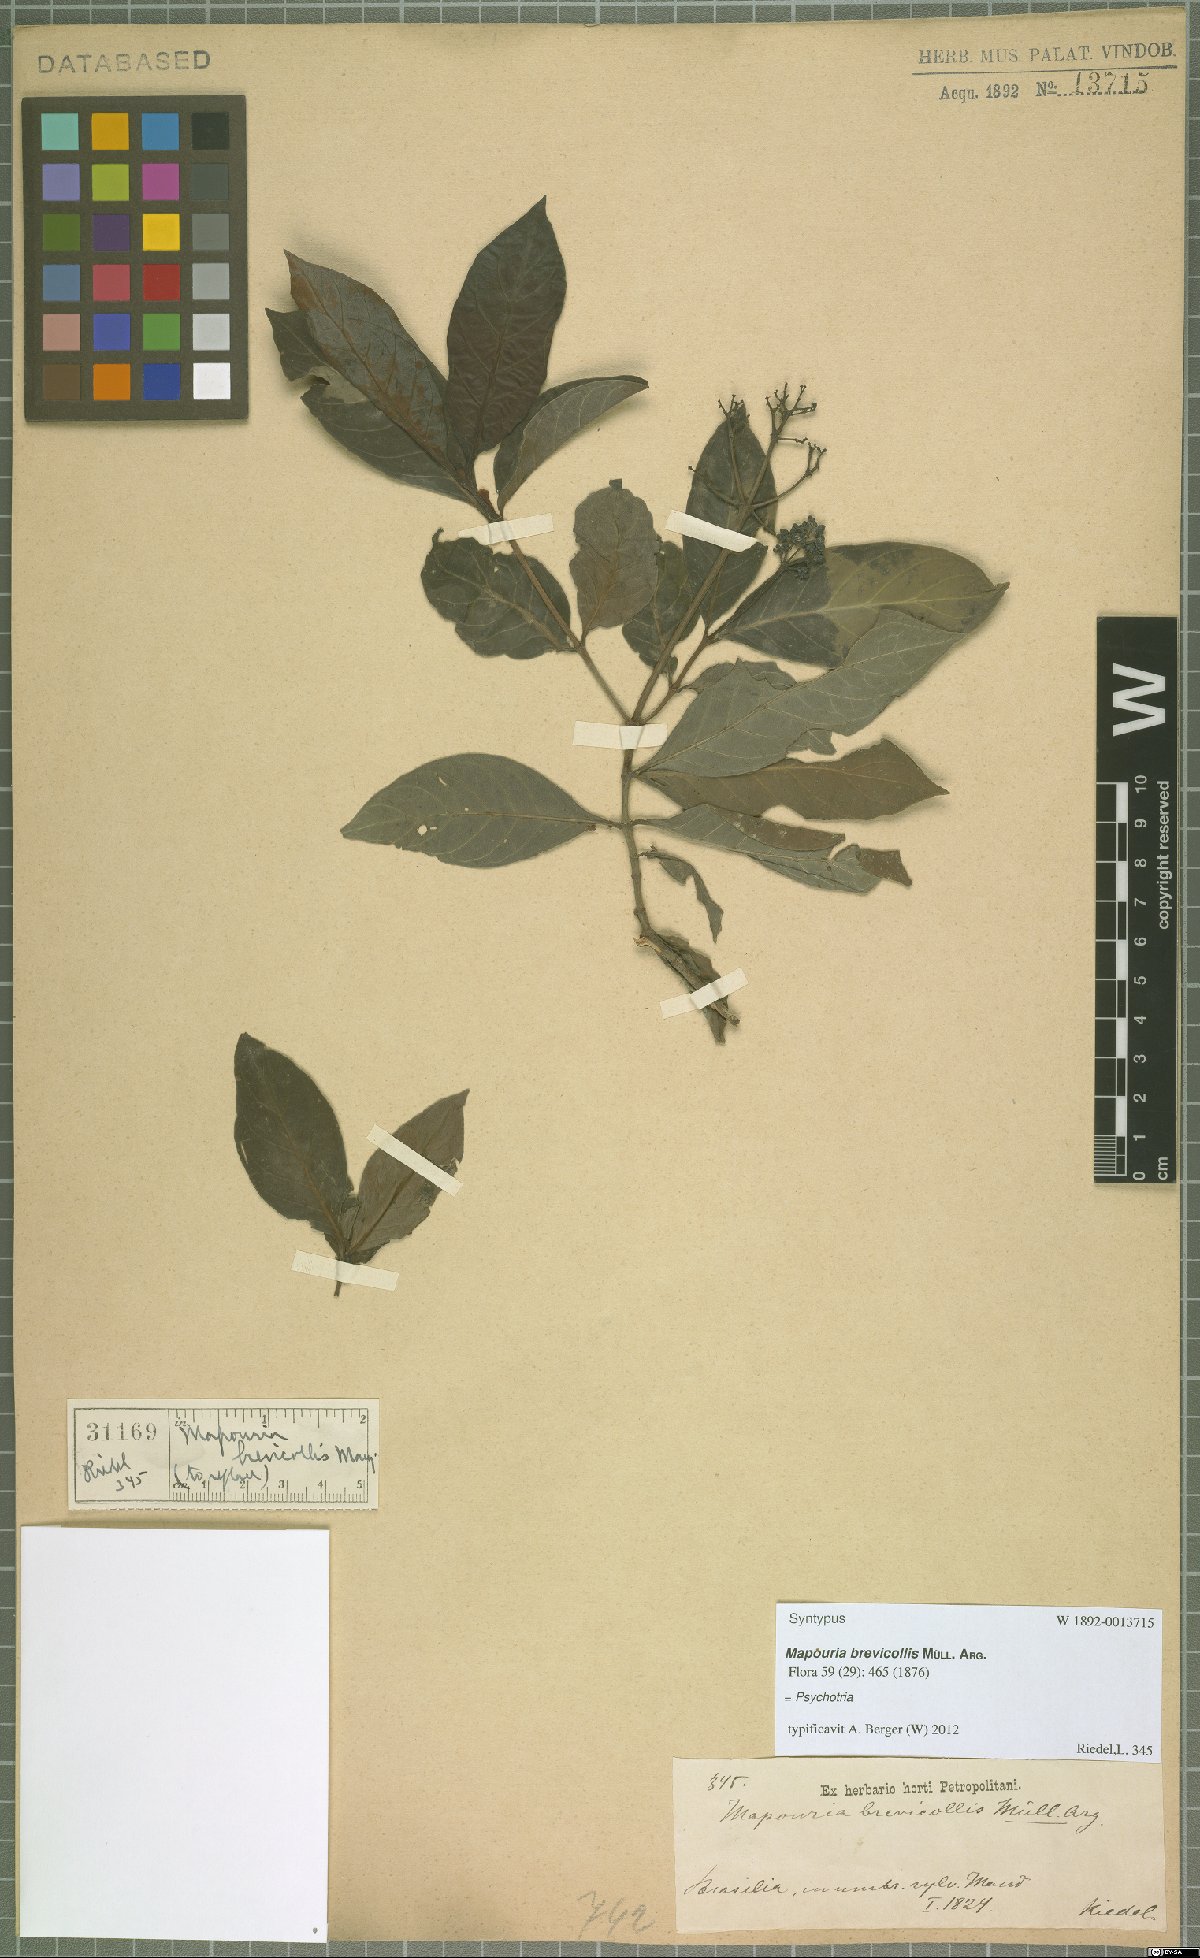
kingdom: Plantae
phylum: Tracheophyta
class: Magnoliopsida
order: Gentianales
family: Rubiaceae
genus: Psychotria
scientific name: Psychotria
